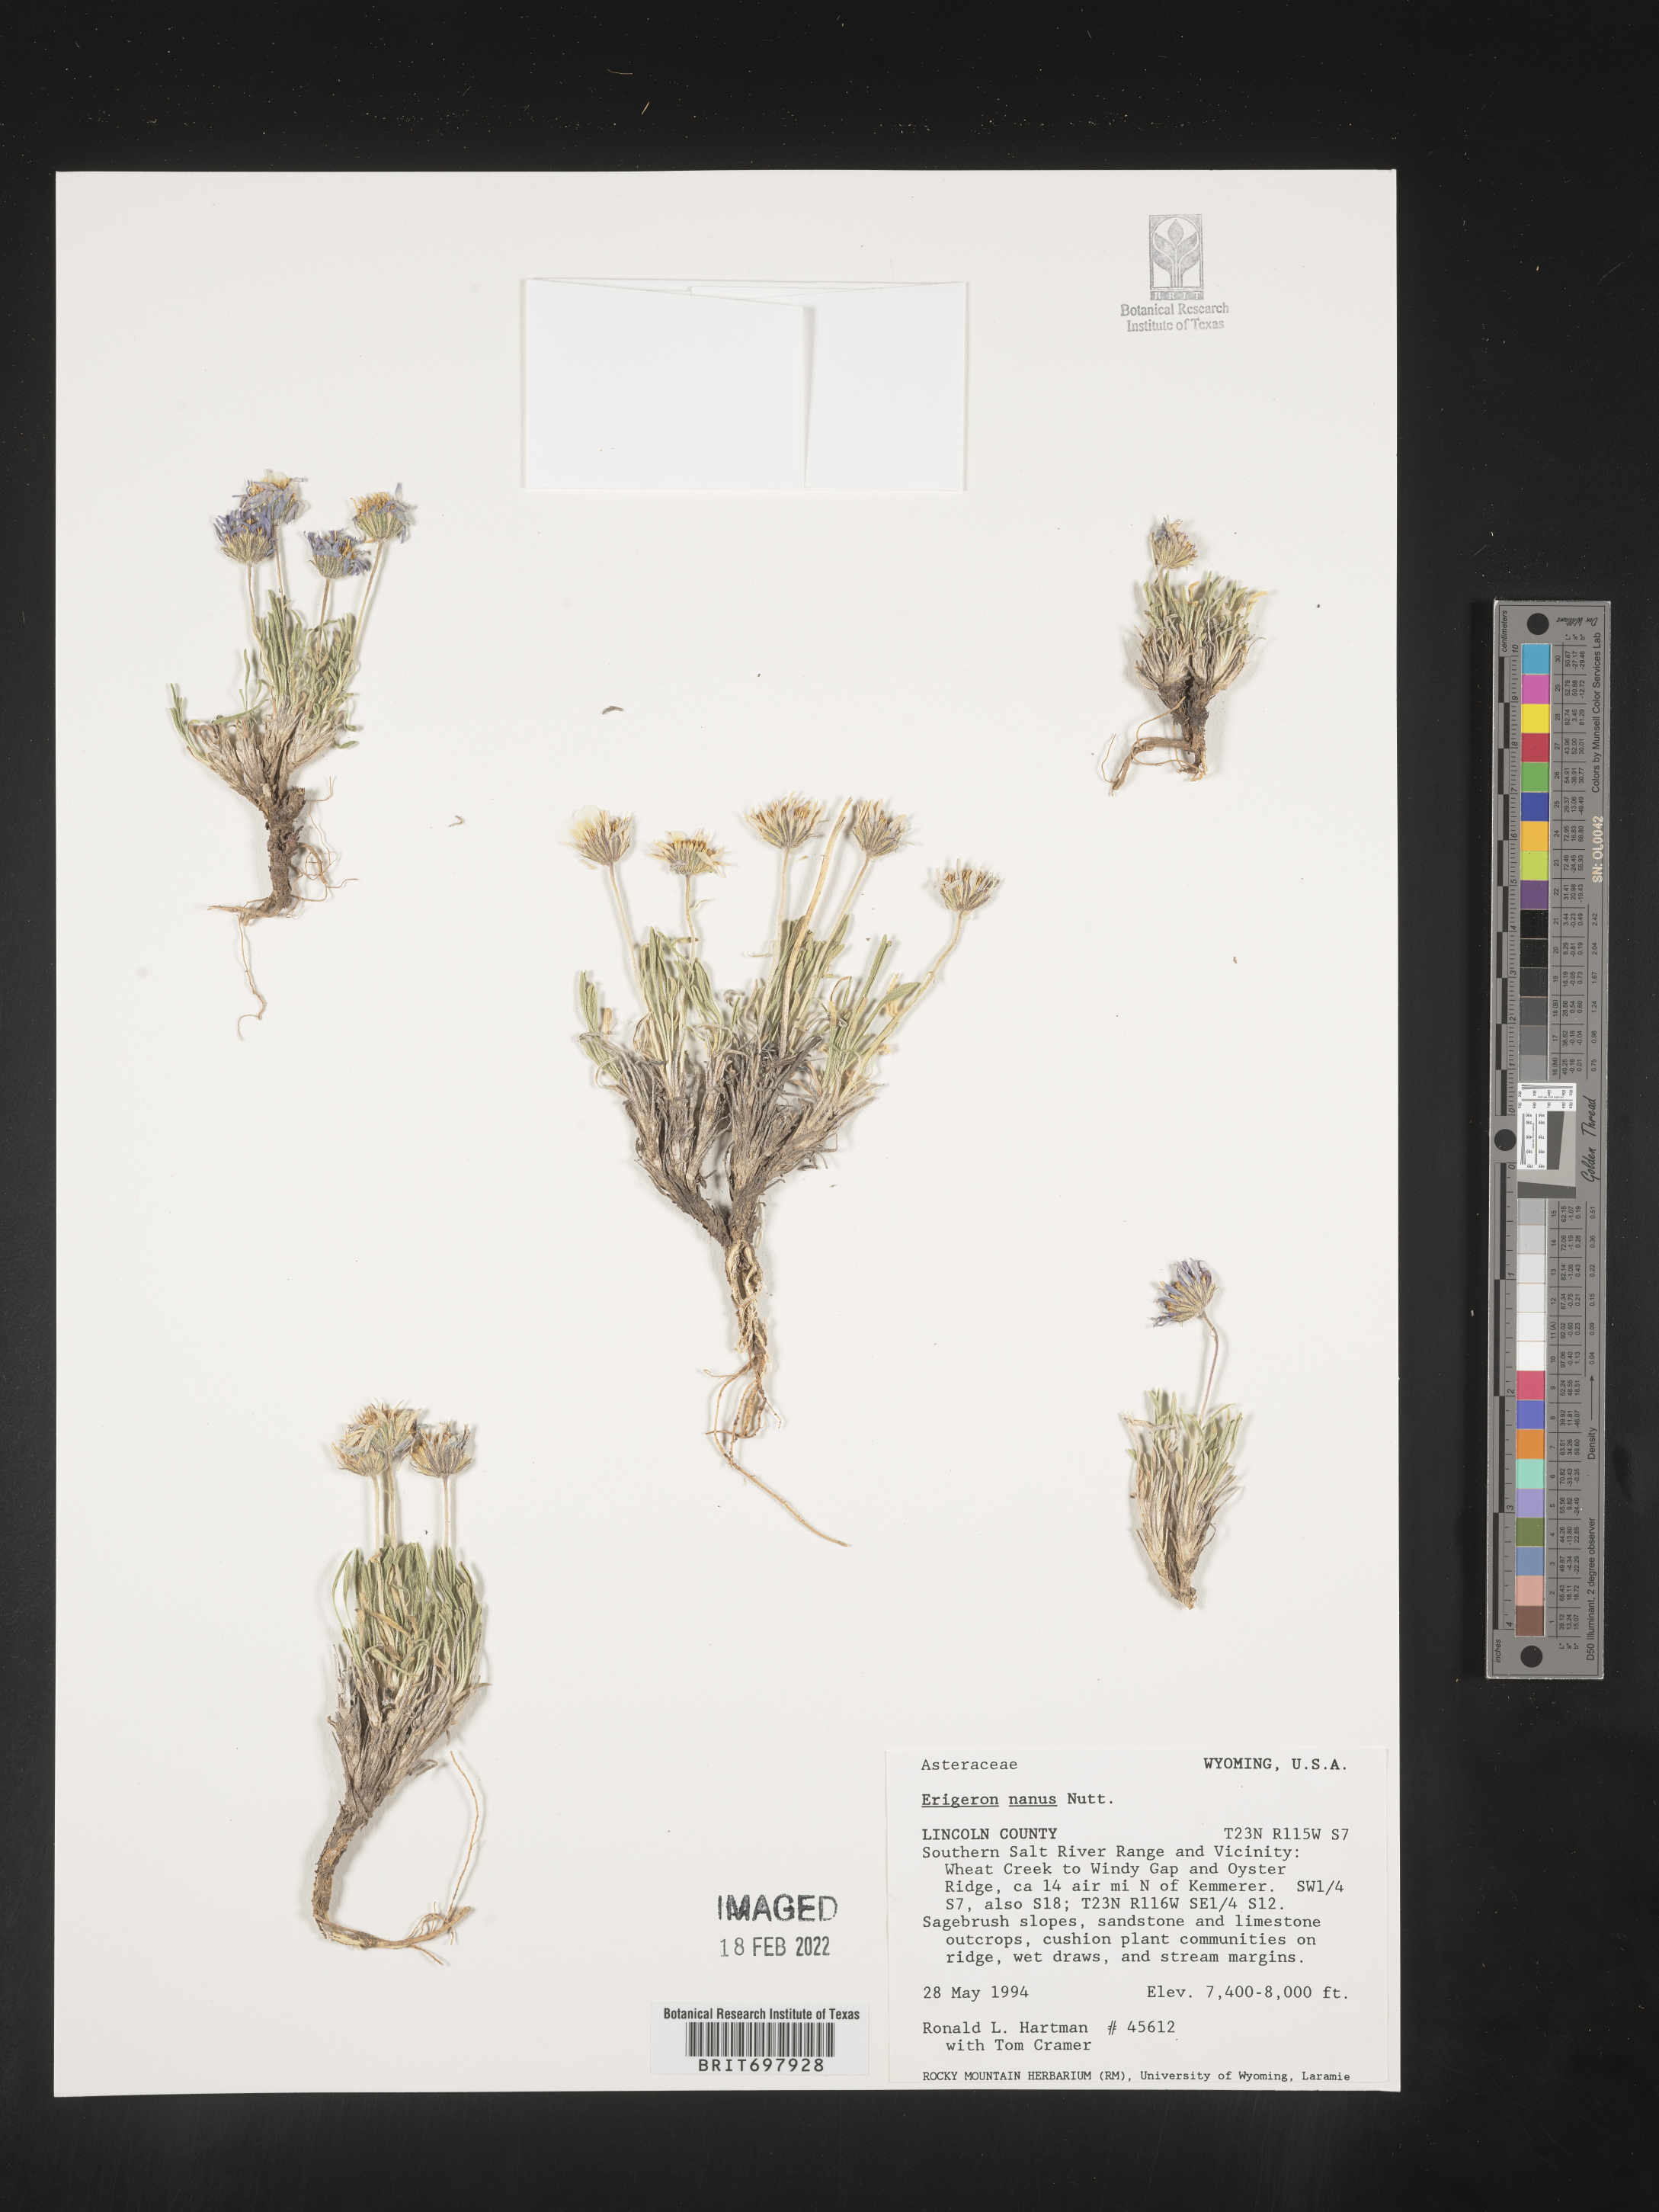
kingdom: Plantae
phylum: Tracheophyta
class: Magnoliopsida
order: Asterales
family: Asteraceae
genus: Erigeron
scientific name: Erigeron nanus
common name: Dwarf fleabane
